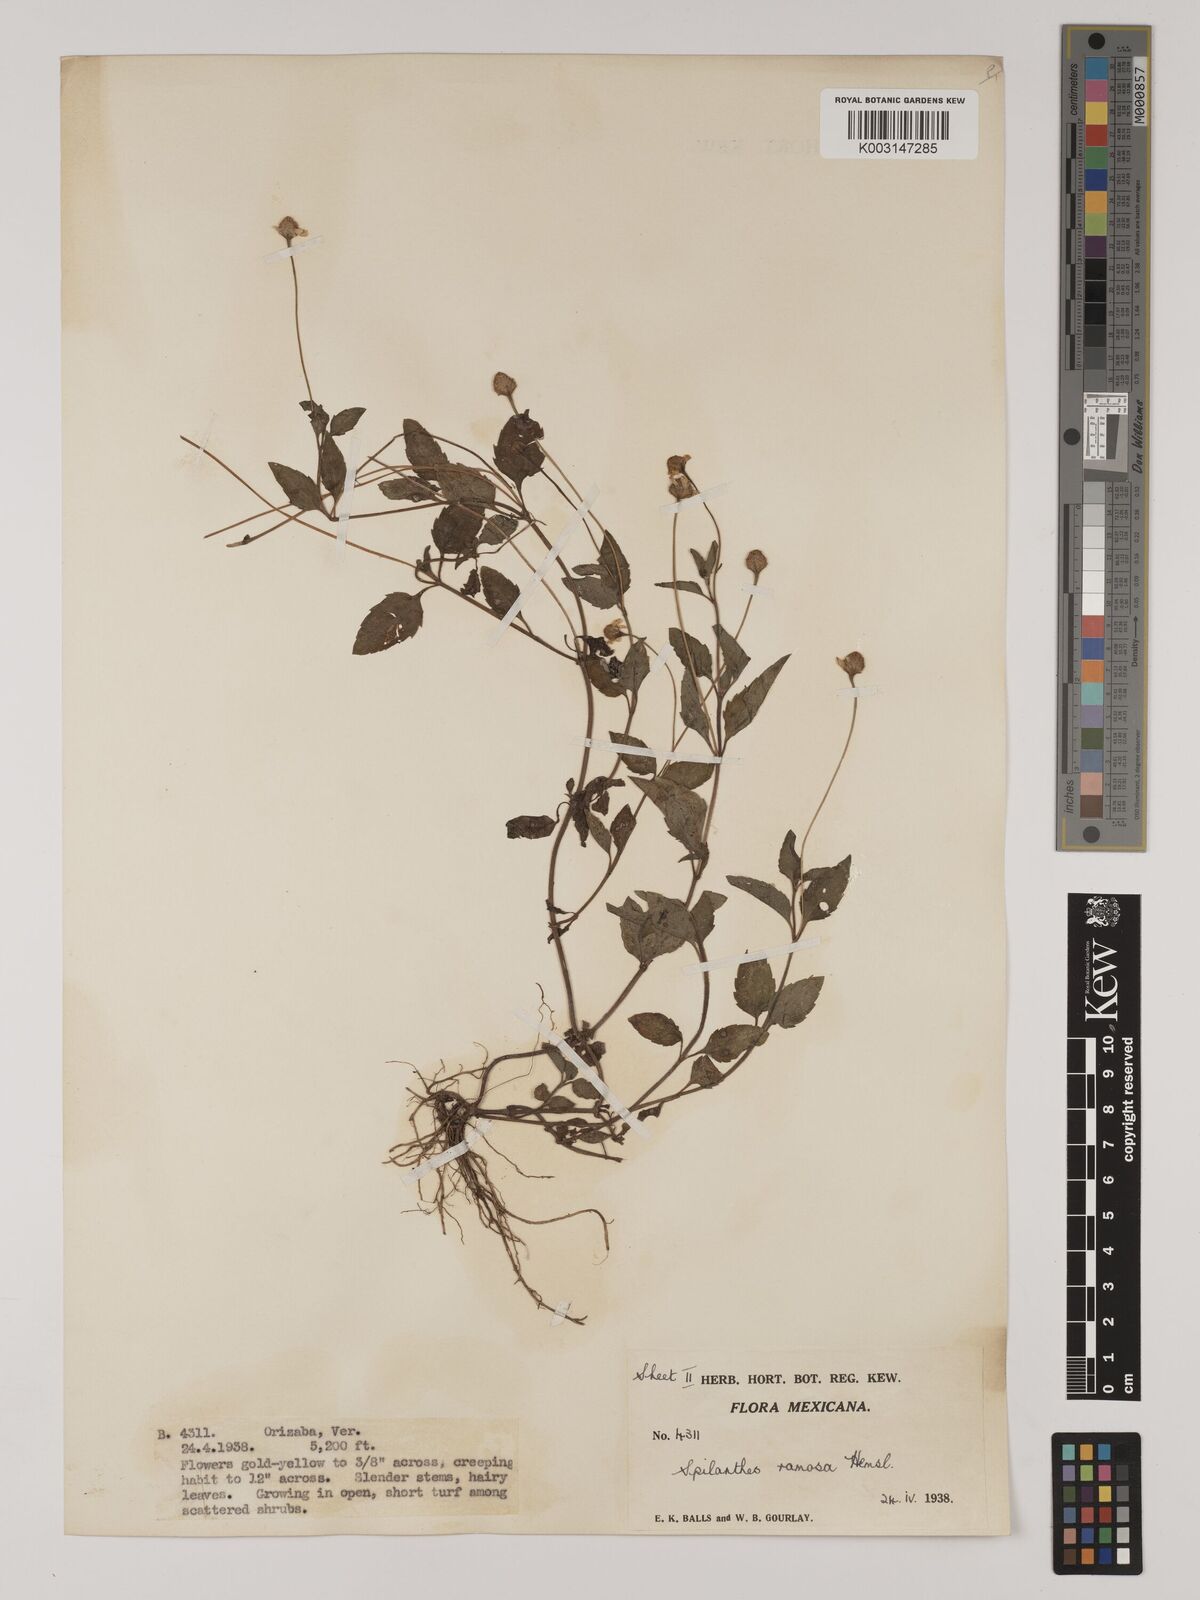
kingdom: Plantae
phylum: Tracheophyta
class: Magnoliopsida
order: Asterales
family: Asteraceae
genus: Acmella
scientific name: Acmella ramosa
